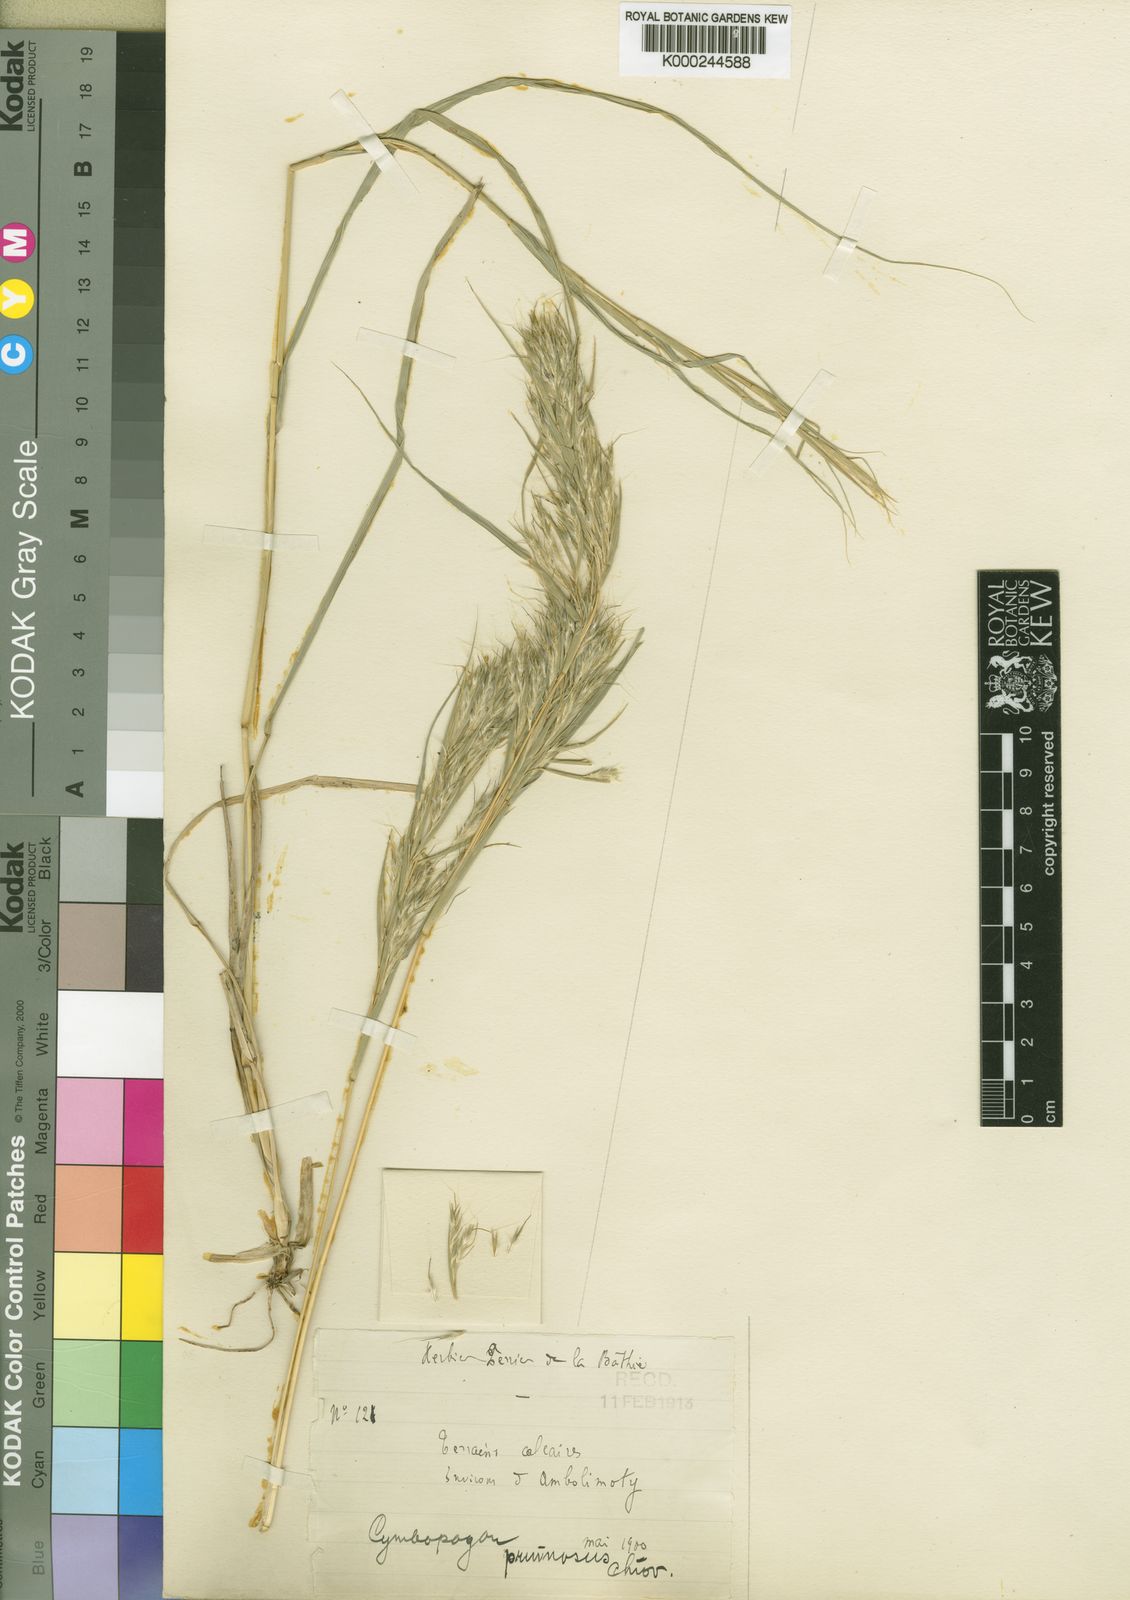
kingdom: Plantae
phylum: Tracheophyta
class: Liliopsida
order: Poales
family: Poaceae
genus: Cymbopogon
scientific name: Cymbopogon pruinosus
